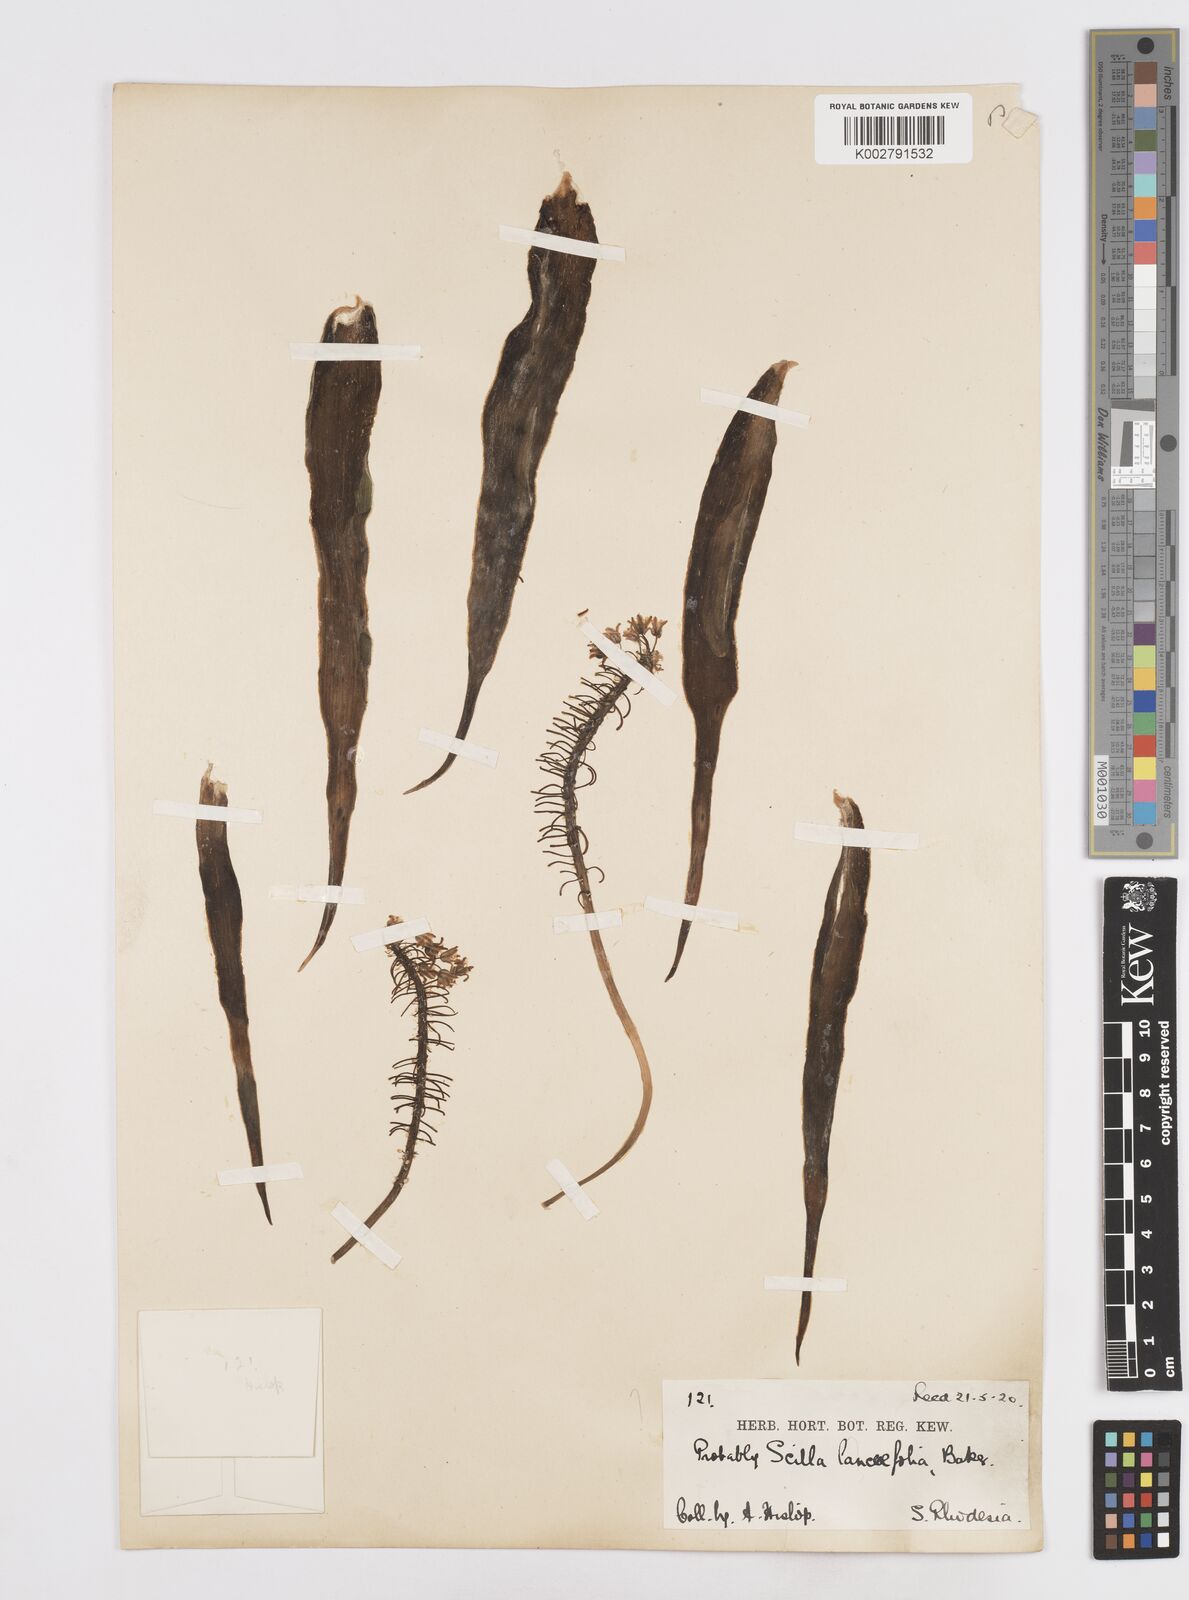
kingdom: Plantae
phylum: Tracheophyta
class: Liliopsida
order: Asparagales
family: Asparagaceae
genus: Scilla
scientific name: Scilla
